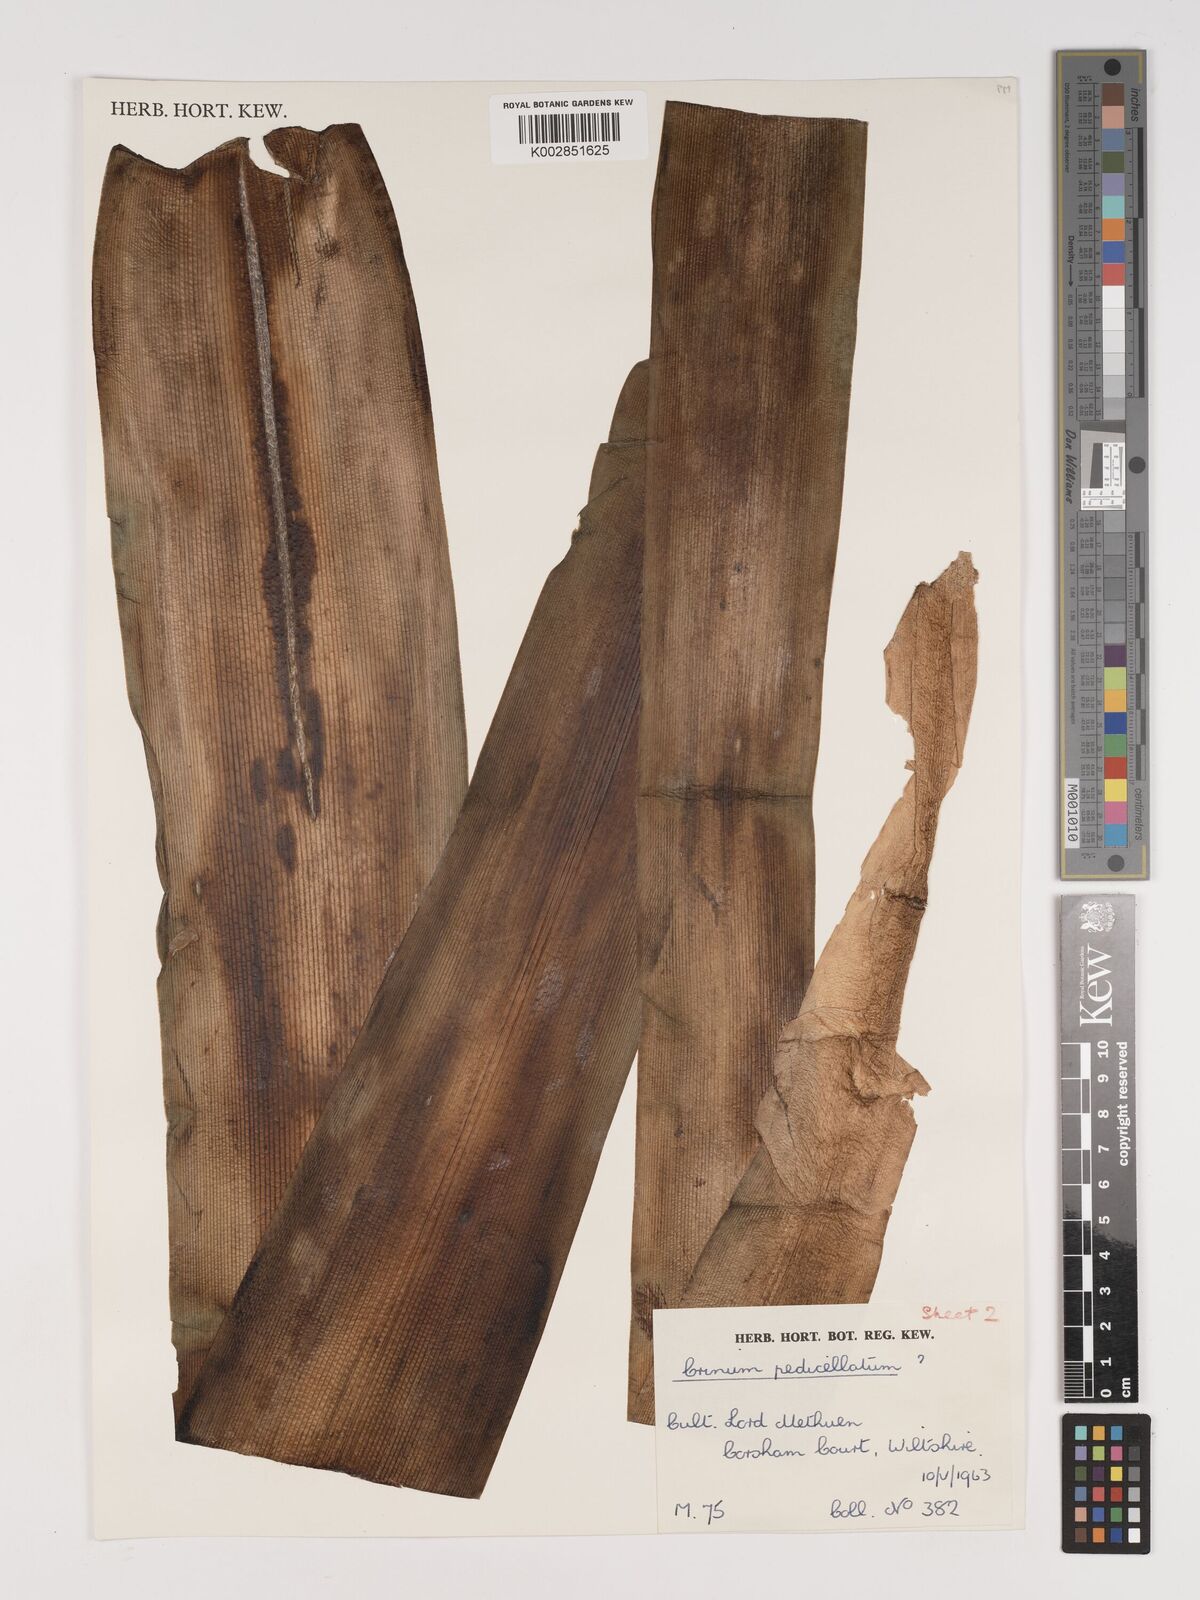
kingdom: Plantae
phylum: Tracheophyta
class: Liliopsida
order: Asparagales
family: Amaryllidaceae
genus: Crinum
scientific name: Crinum
